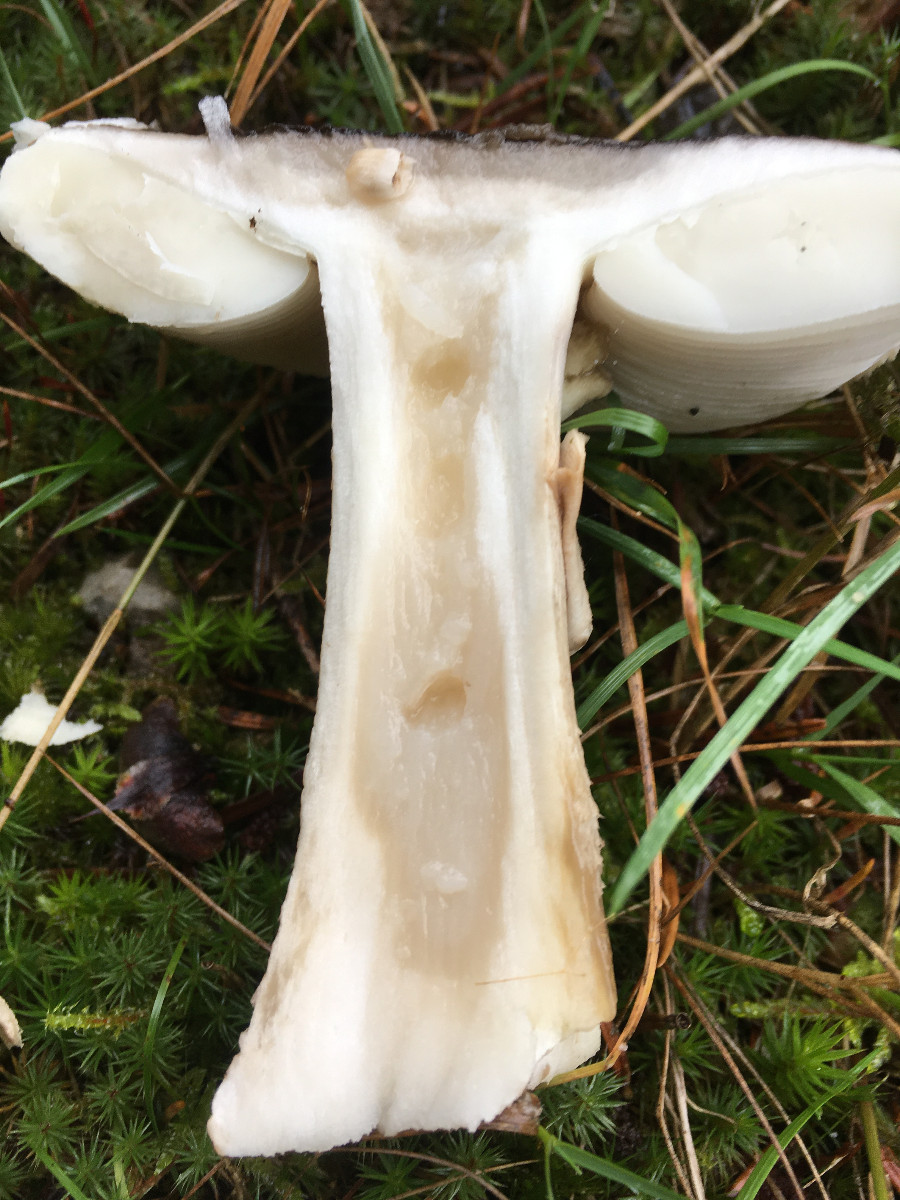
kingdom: Fungi
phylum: Basidiomycota
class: Agaricomycetes
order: Agaricales
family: Amanitaceae
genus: Amanita
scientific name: Amanita
